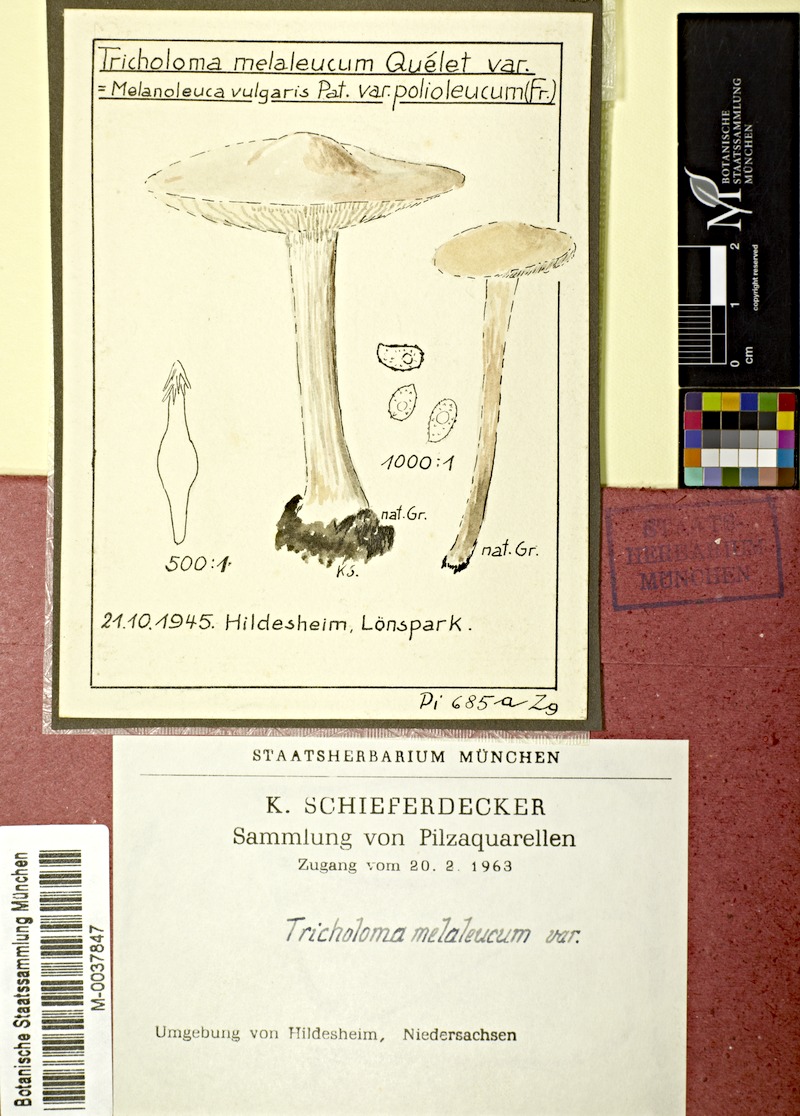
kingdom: Fungi
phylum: Basidiomycota
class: Agaricomycetes
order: Agaricales
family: Tricholomataceae
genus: Melanoleuca
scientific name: Melanoleuca polioleuca
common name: Common cavalier
